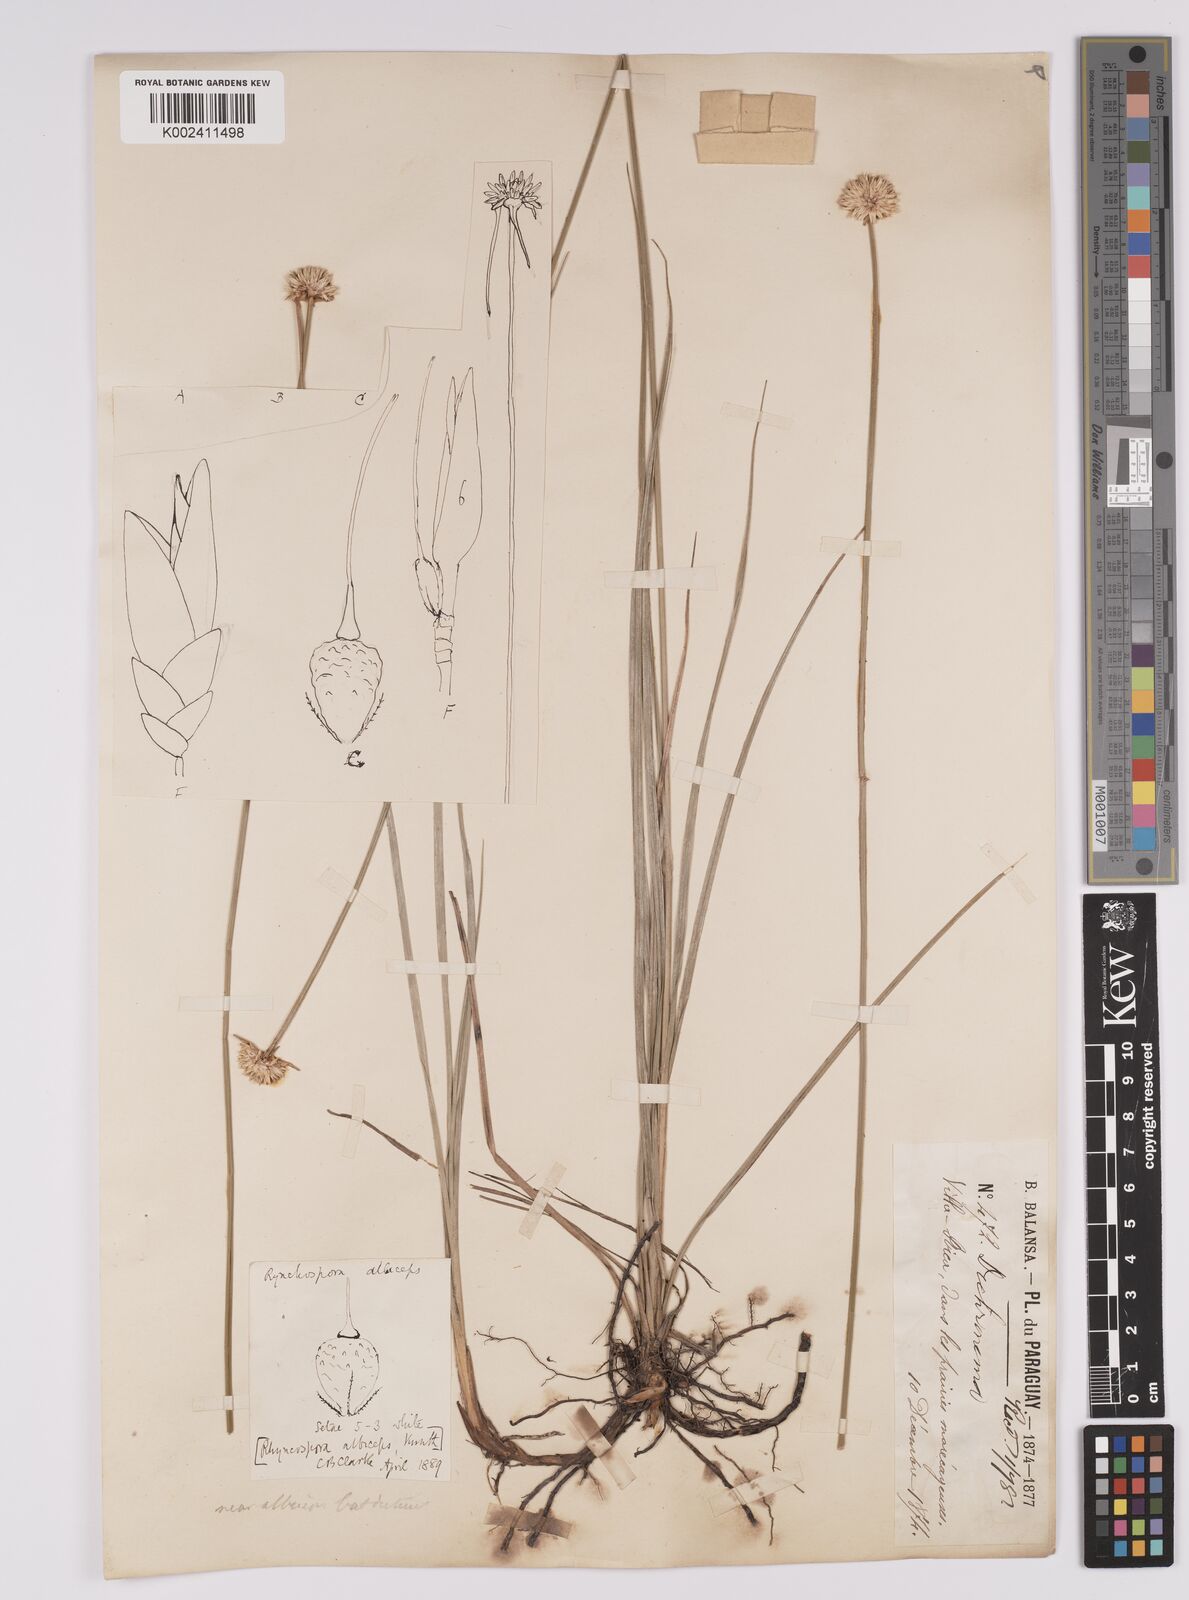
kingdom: Plantae
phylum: Tracheophyta
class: Liliopsida
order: Poales
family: Cyperaceae
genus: Rhynchospora
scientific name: Rhynchospora albiceps
